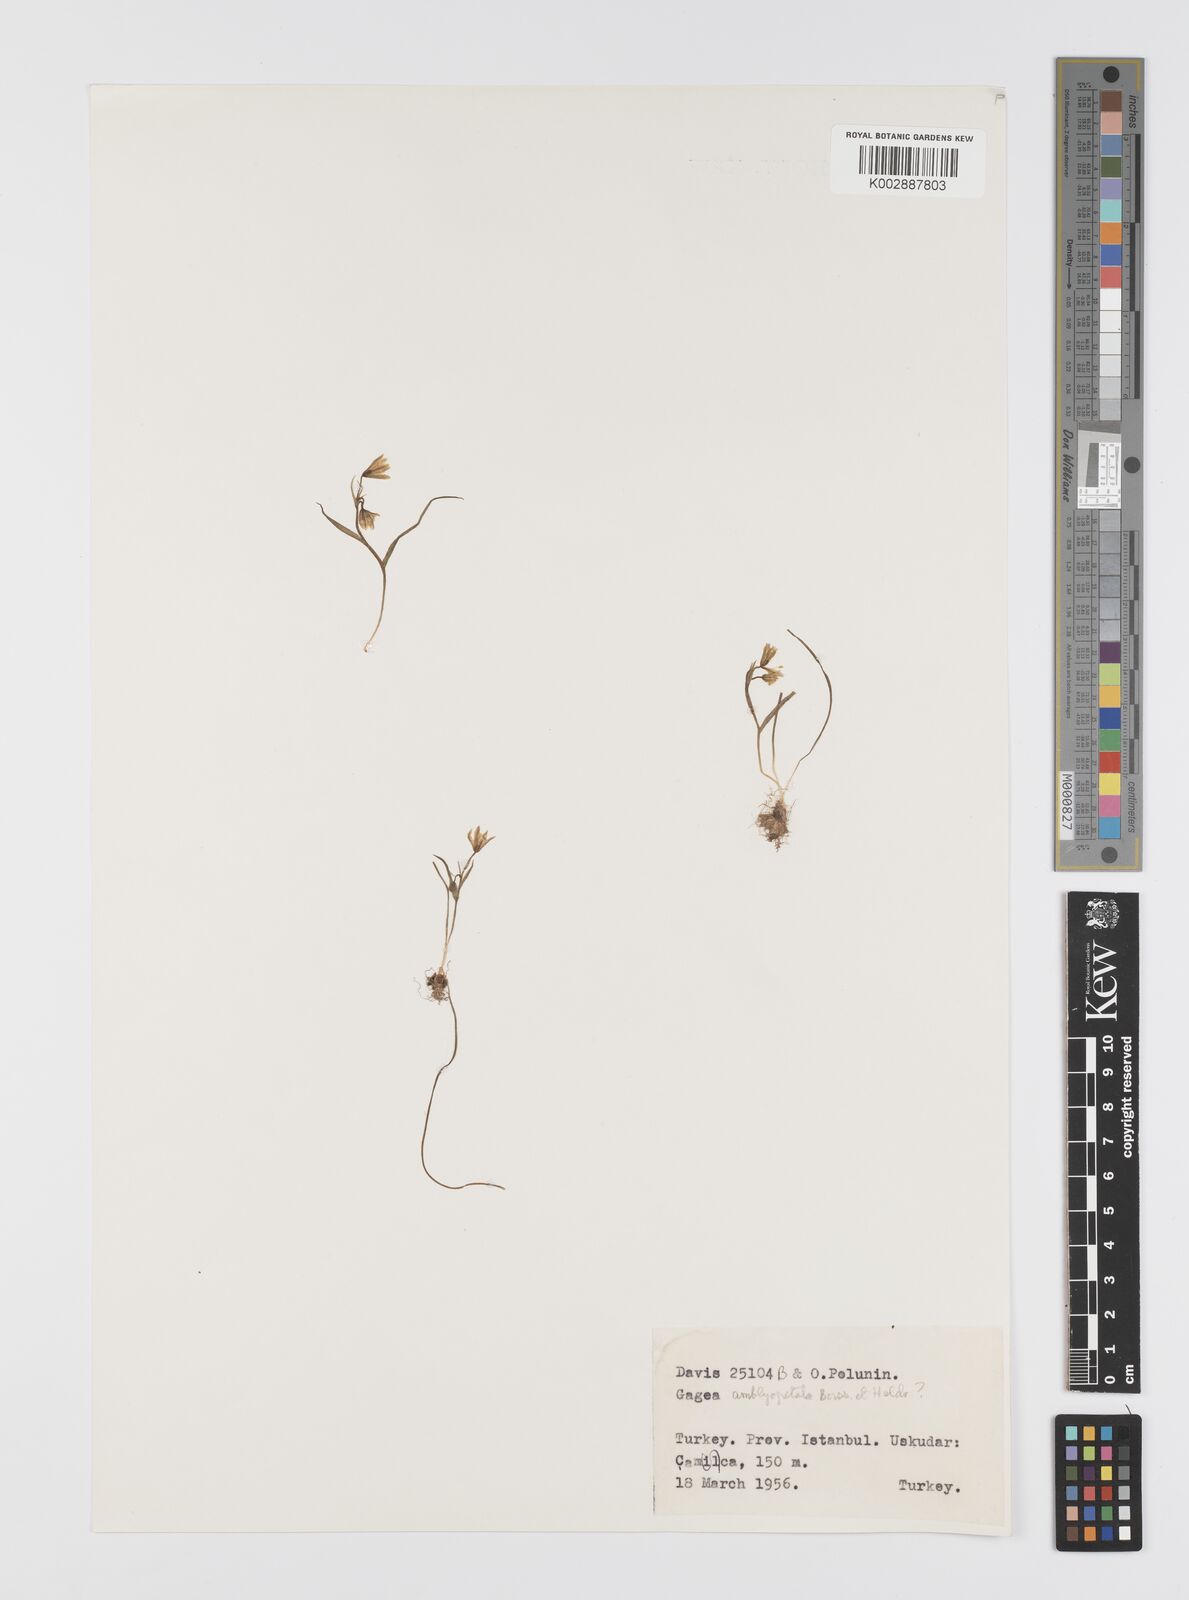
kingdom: Plantae
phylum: Tracheophyta
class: Liliopsida
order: Liliales
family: Liliaceae
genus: Gagea
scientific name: Gagea longifolia
